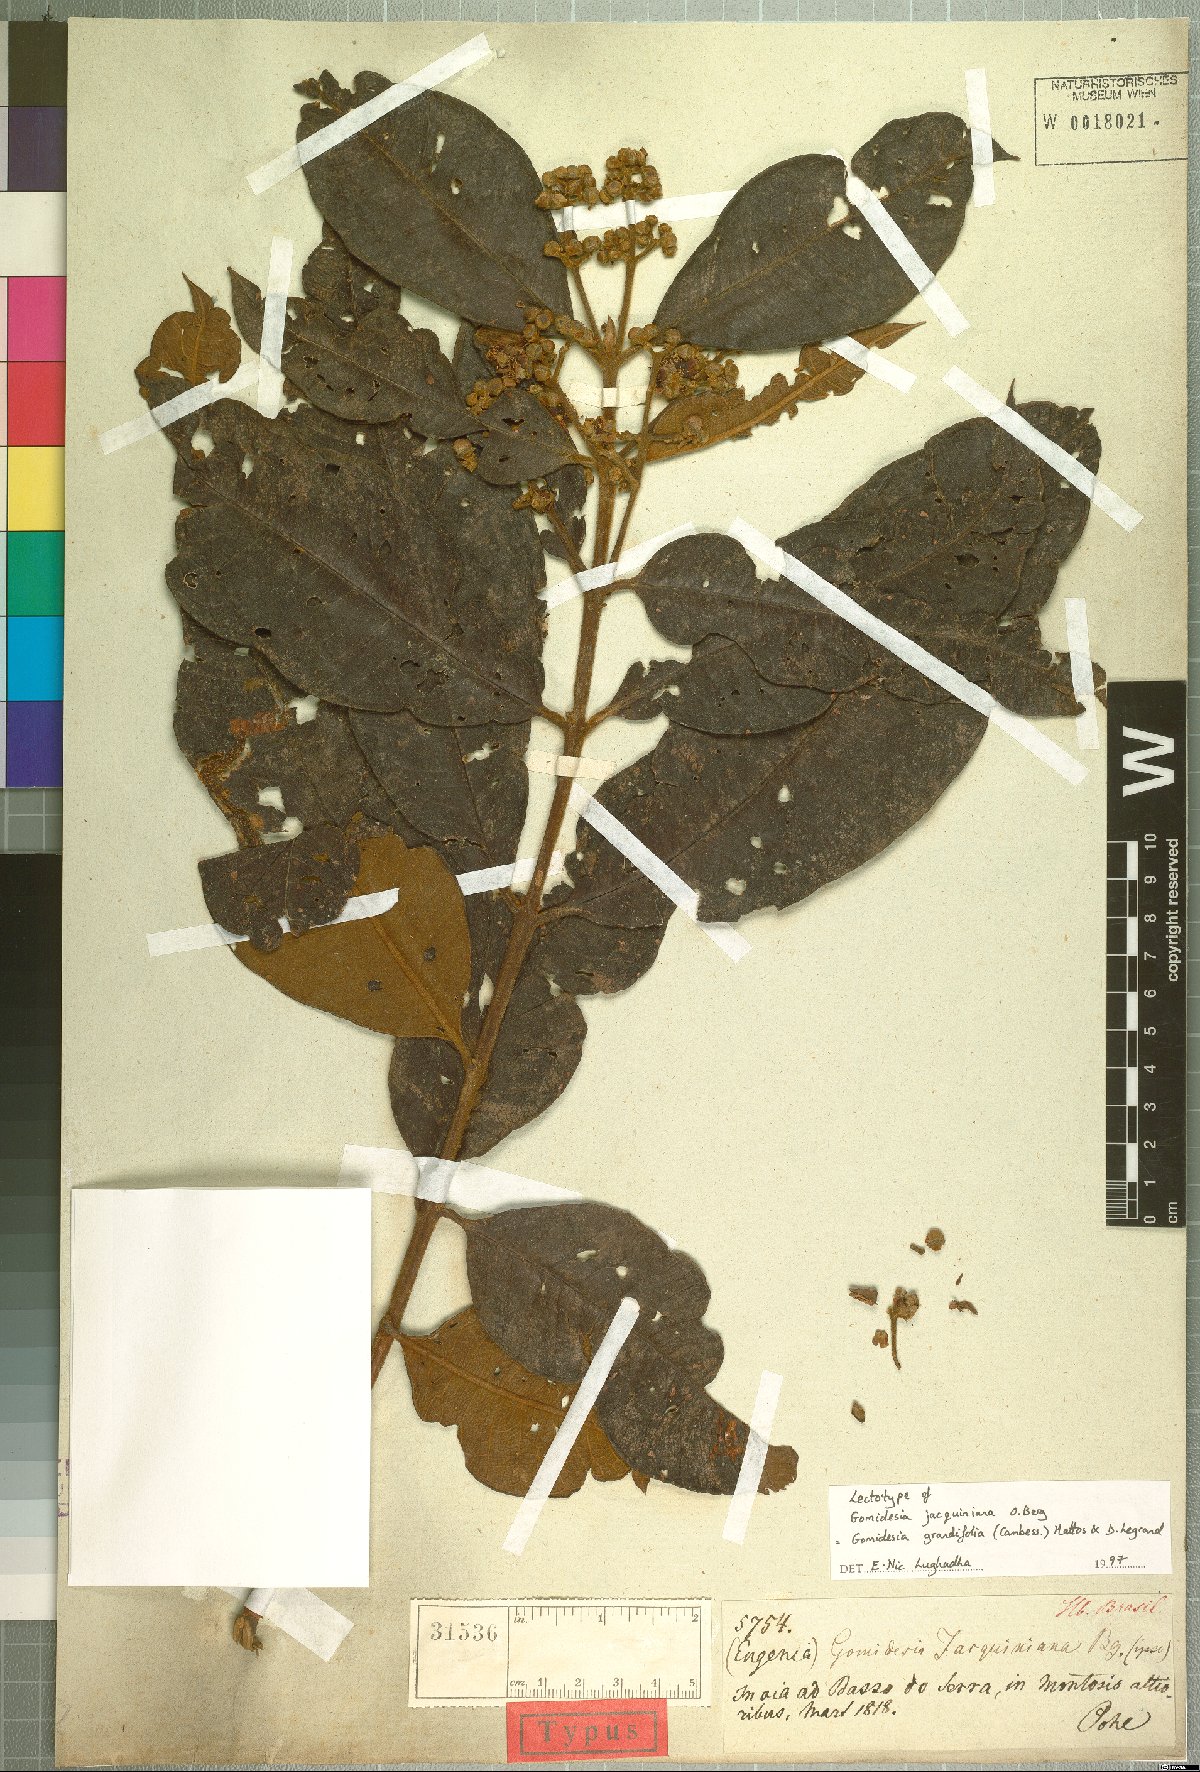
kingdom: Plantae
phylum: Tracheophyta
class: Magnoliopsida
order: Myrtales
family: Myrtaceae
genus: Myrcia
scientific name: Myrcia grandifolia
